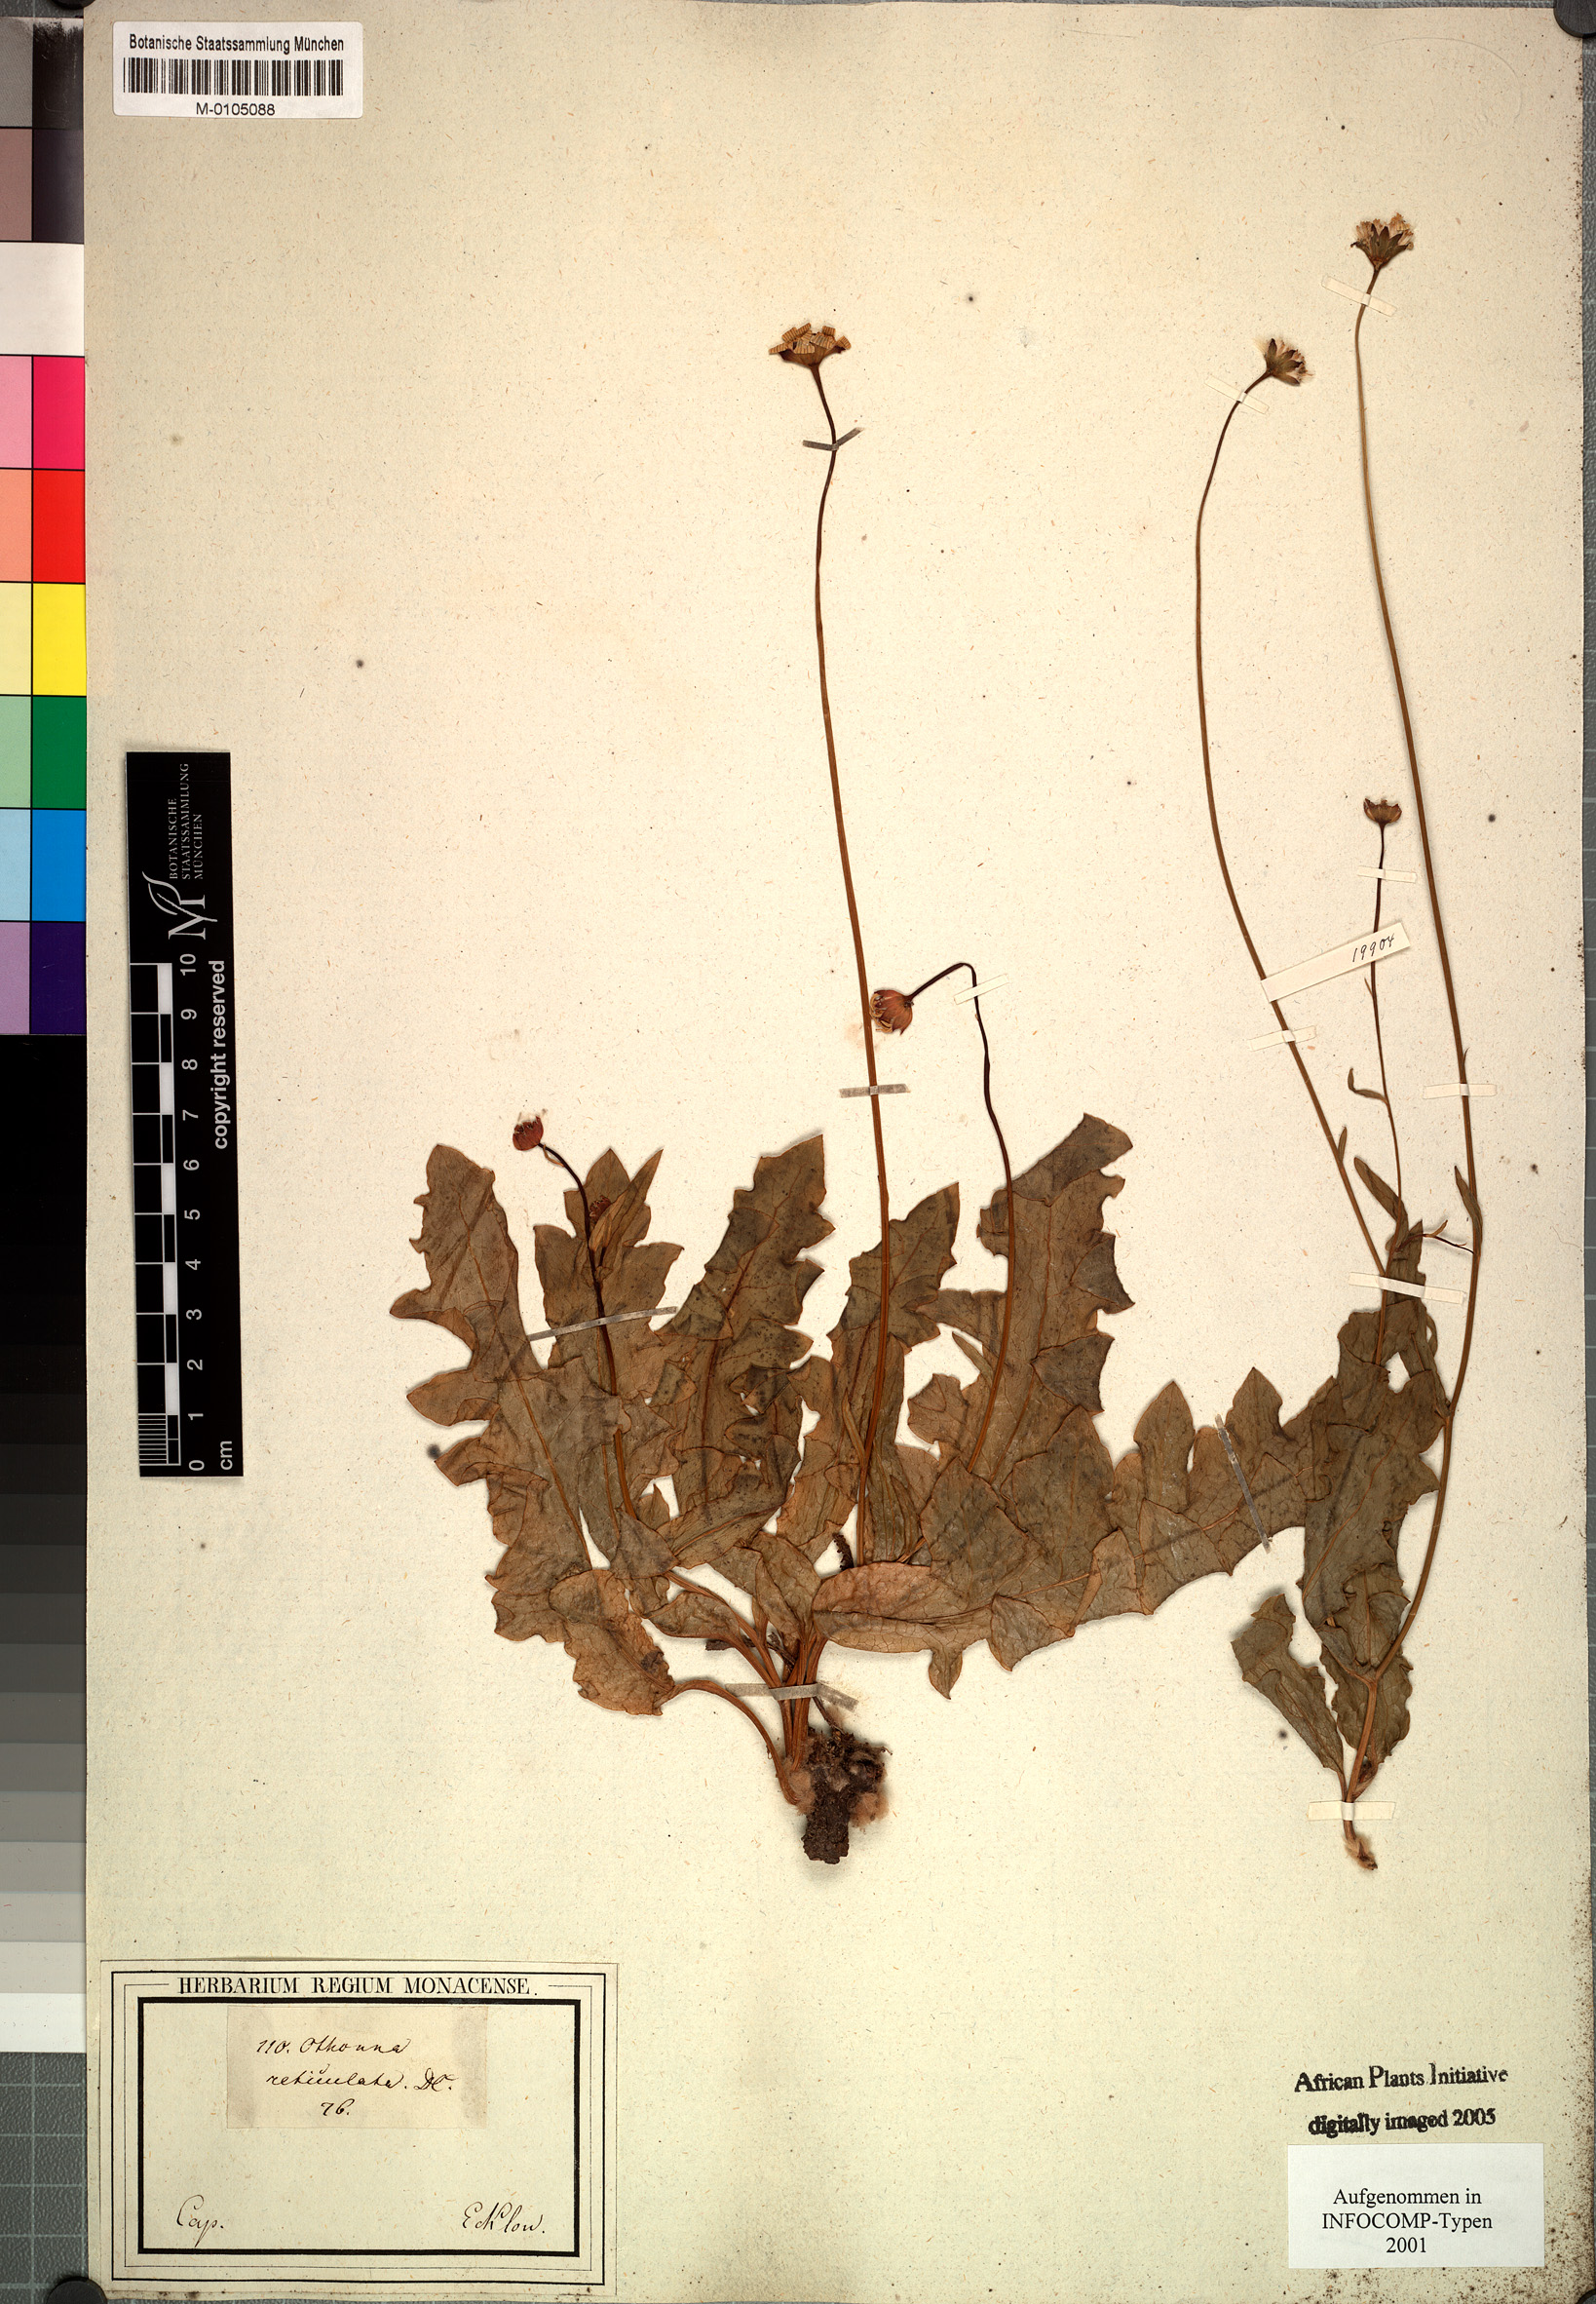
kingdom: Plantae
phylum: Tracheophyta
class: Magnoliopsida
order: Asterales
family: Asteraceae
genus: Othonna
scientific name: Othonna pinnata
